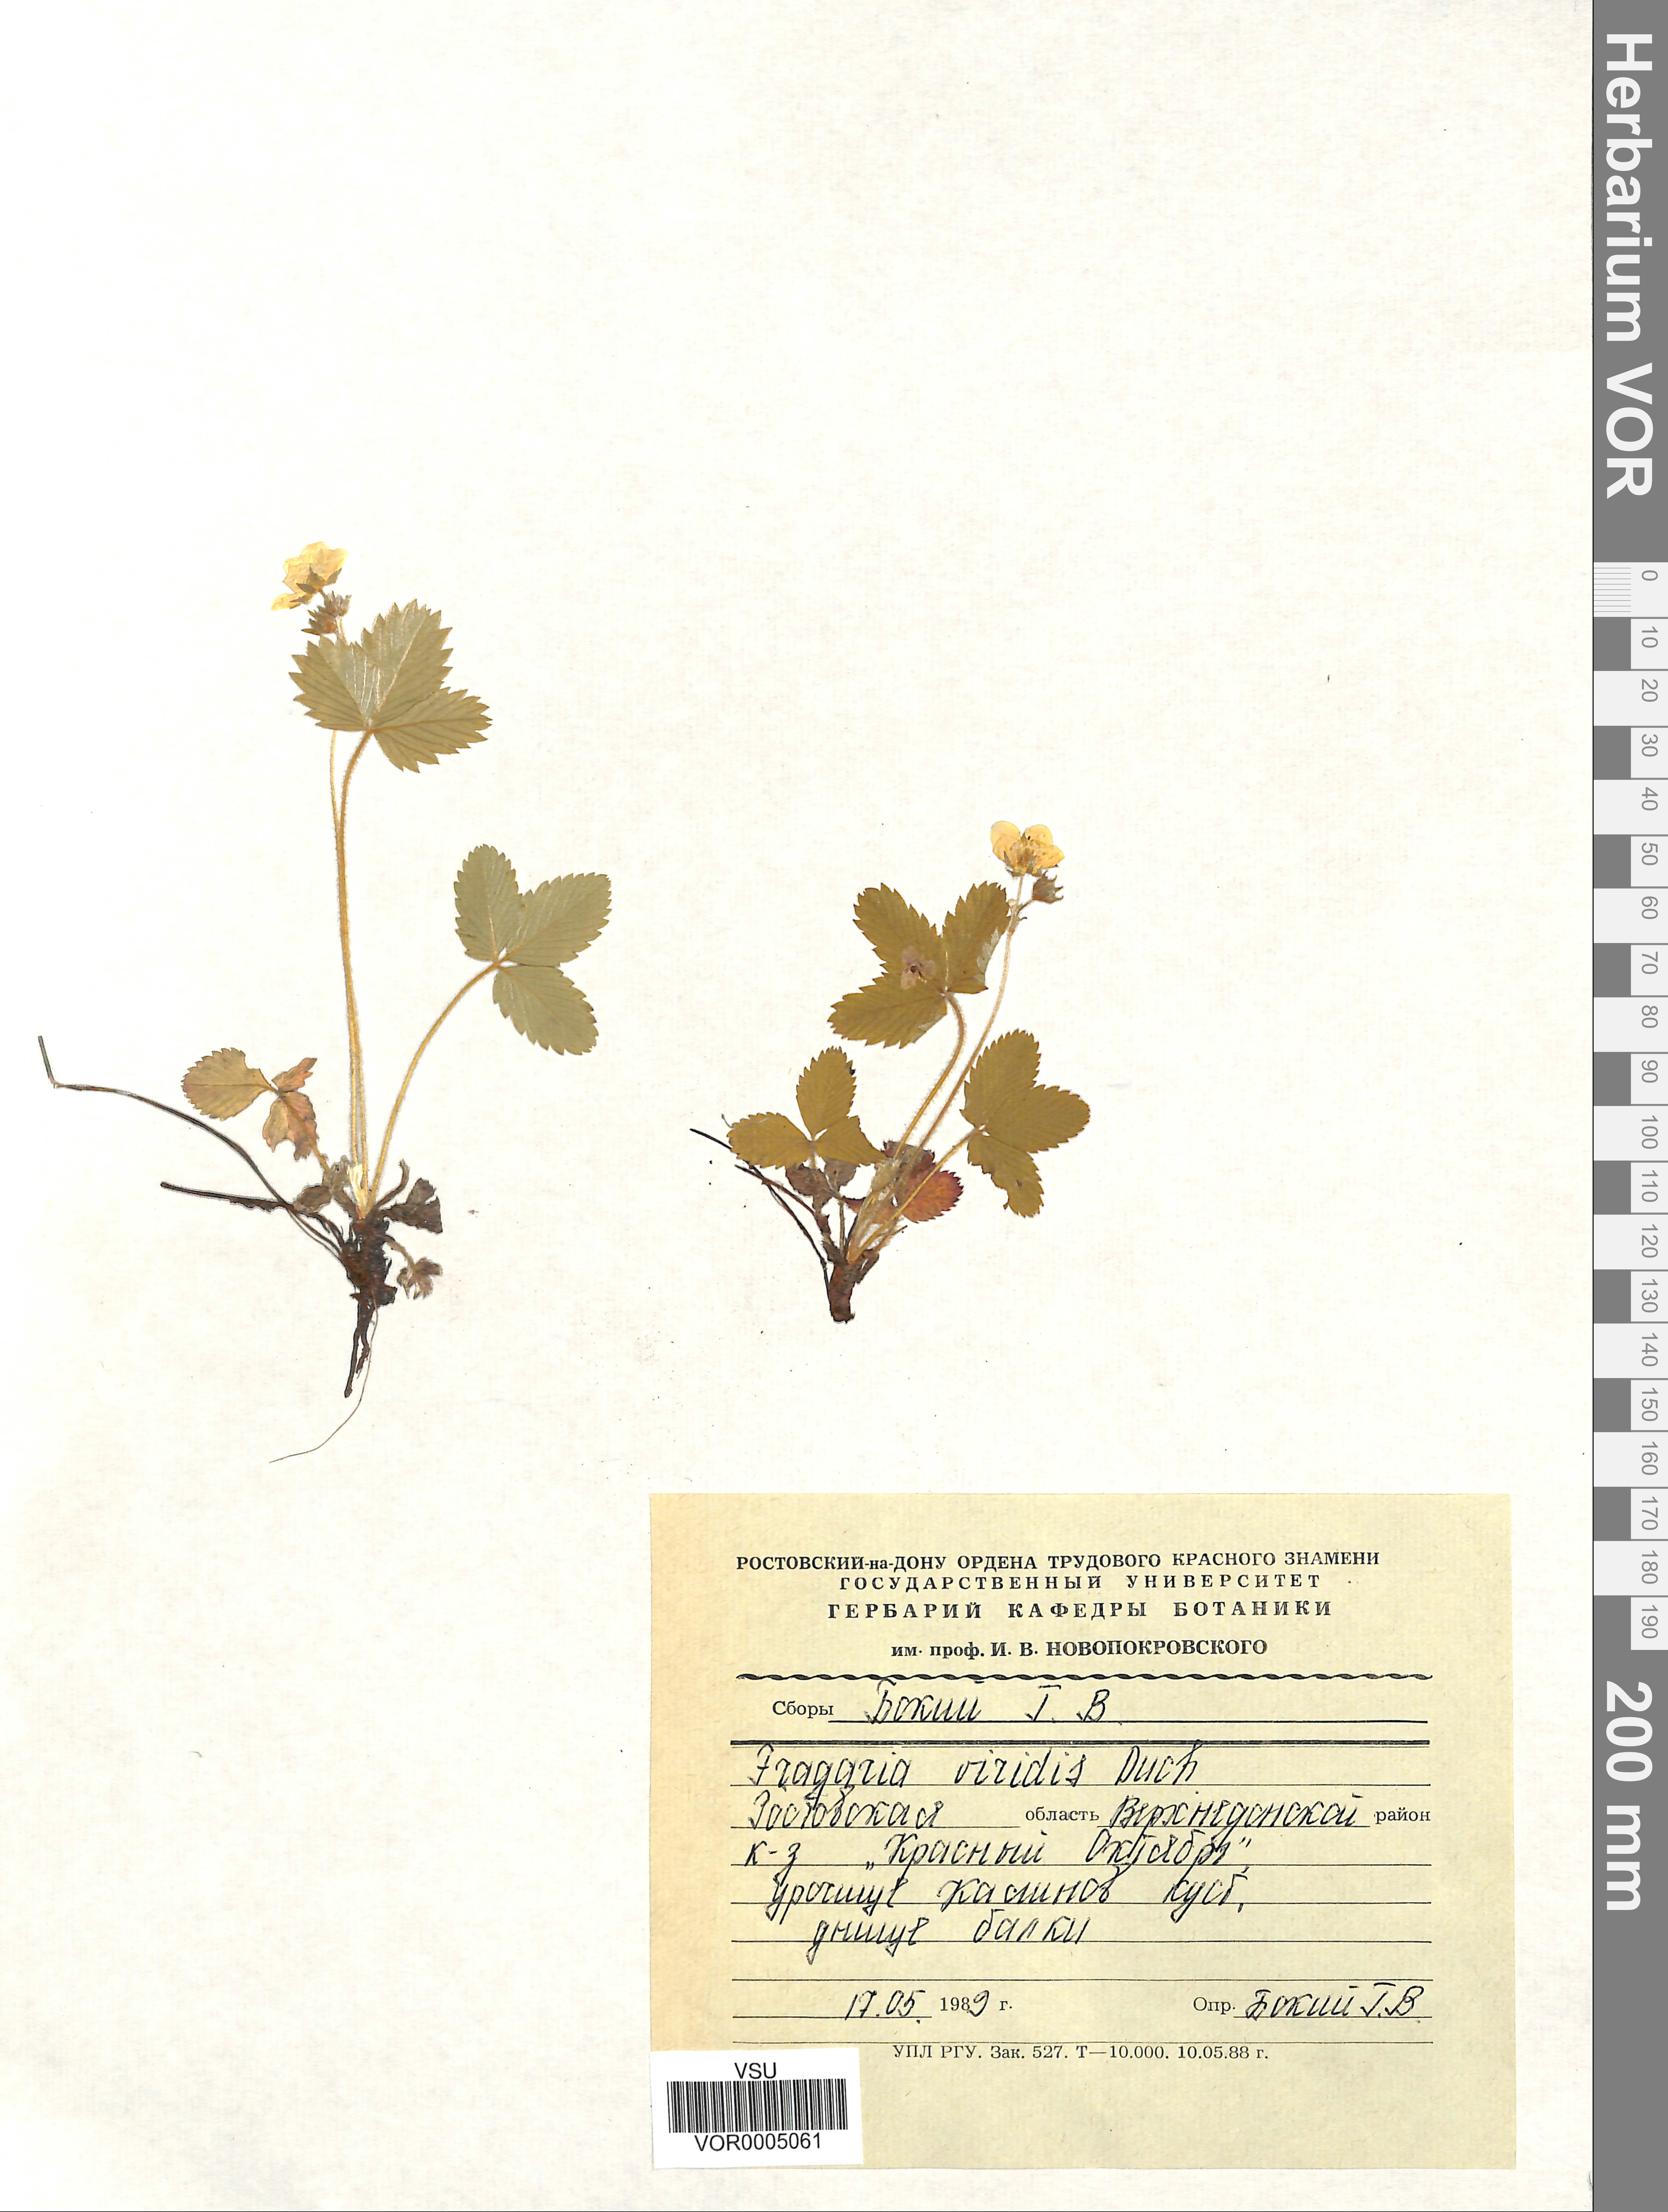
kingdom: Plantae
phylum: Tracheophyta
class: Magnoliopsida
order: Rosales
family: Rosaceae
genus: Fragaria
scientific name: Fragaria viridis
